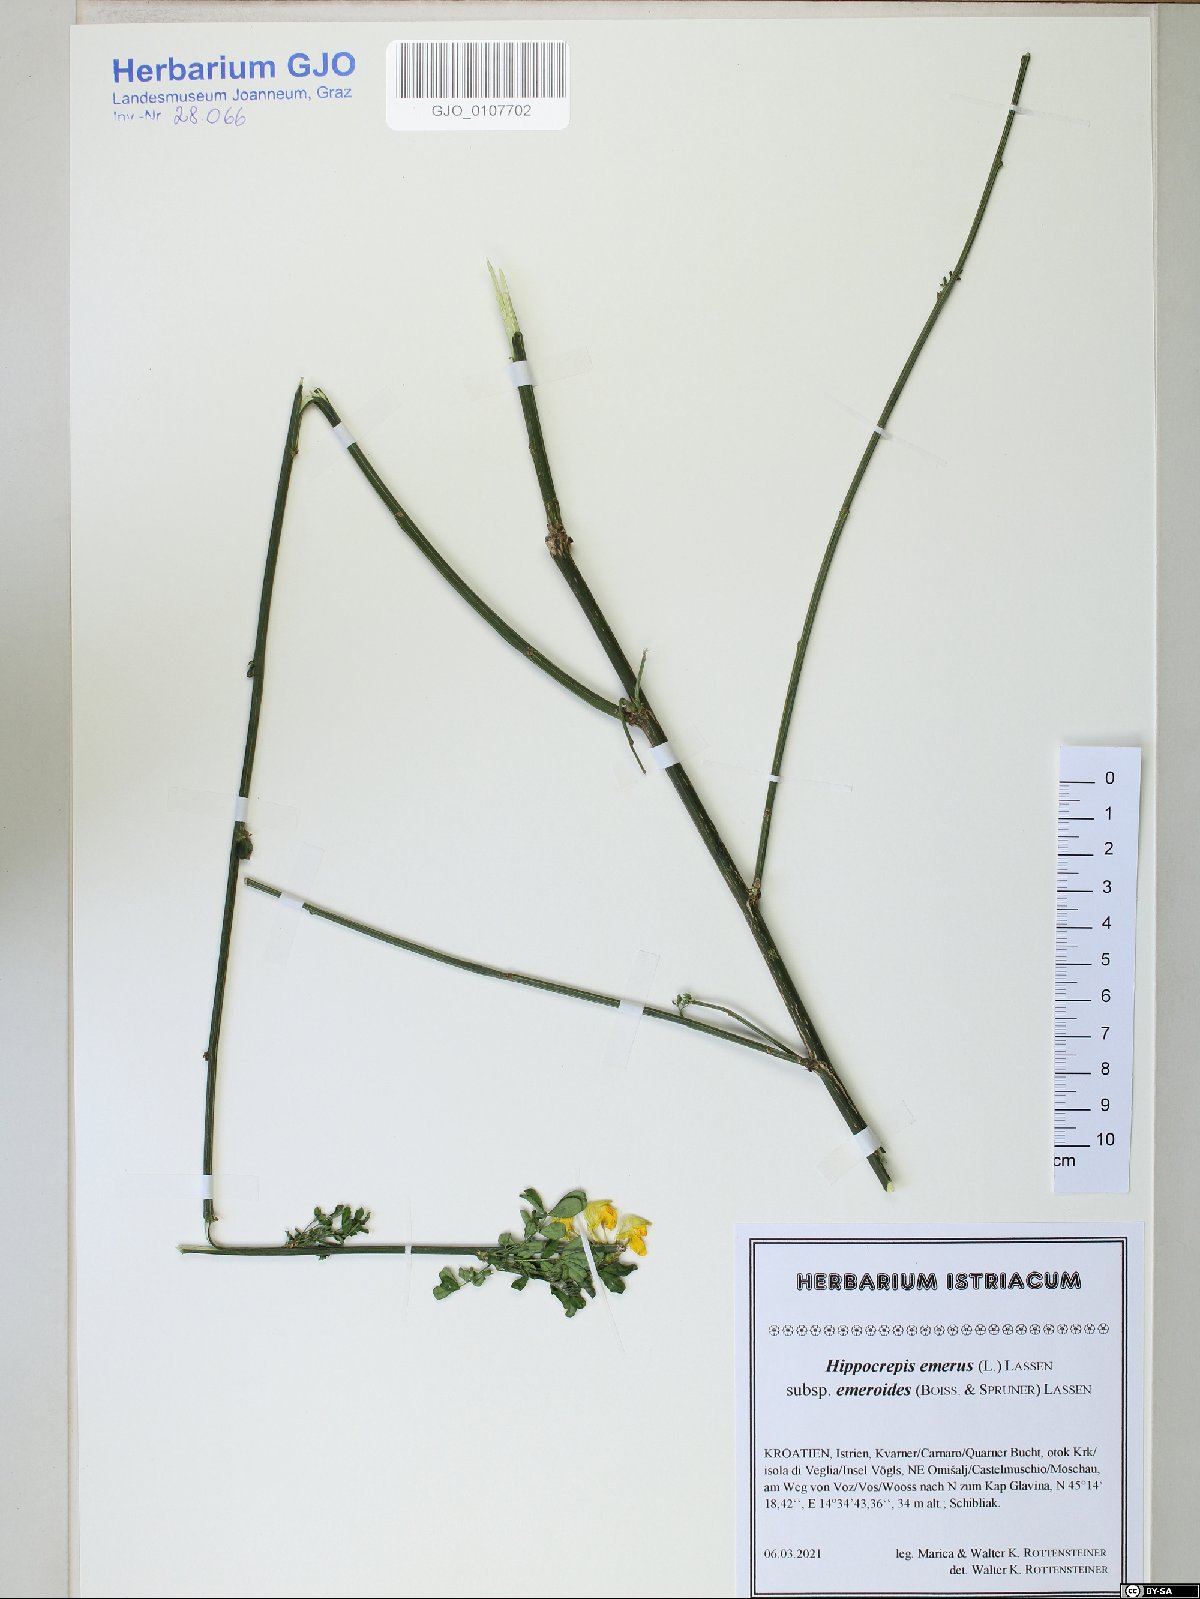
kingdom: Plantae
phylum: Tracheophyta
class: Magnoliopsida
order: Fabales
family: Fabaceae
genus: Hippocrepis
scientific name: Hippocrepis emerus
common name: Scorpion senna
